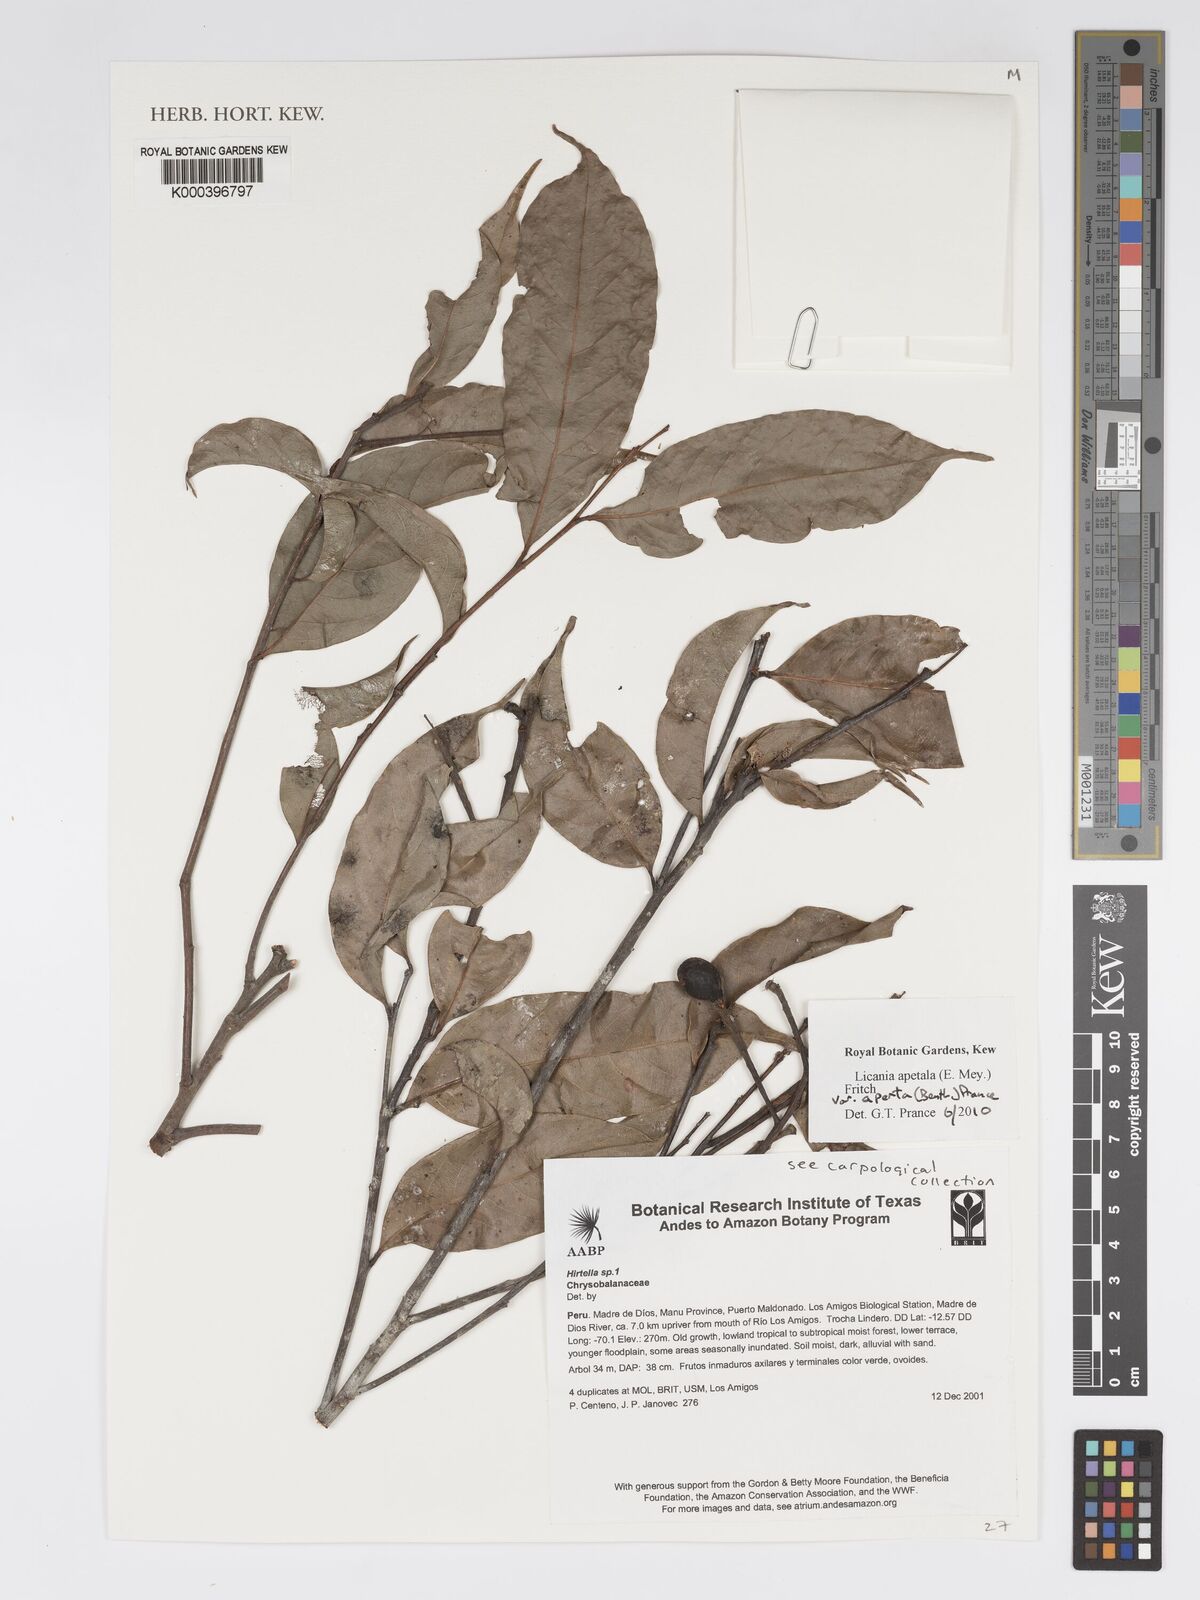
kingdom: Plantae
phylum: Tracheophyta
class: Magnoliopsida
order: Malpighiales
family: Chrysobalanaceae
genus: Leptobalanus
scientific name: Leptobalanus apetalus
